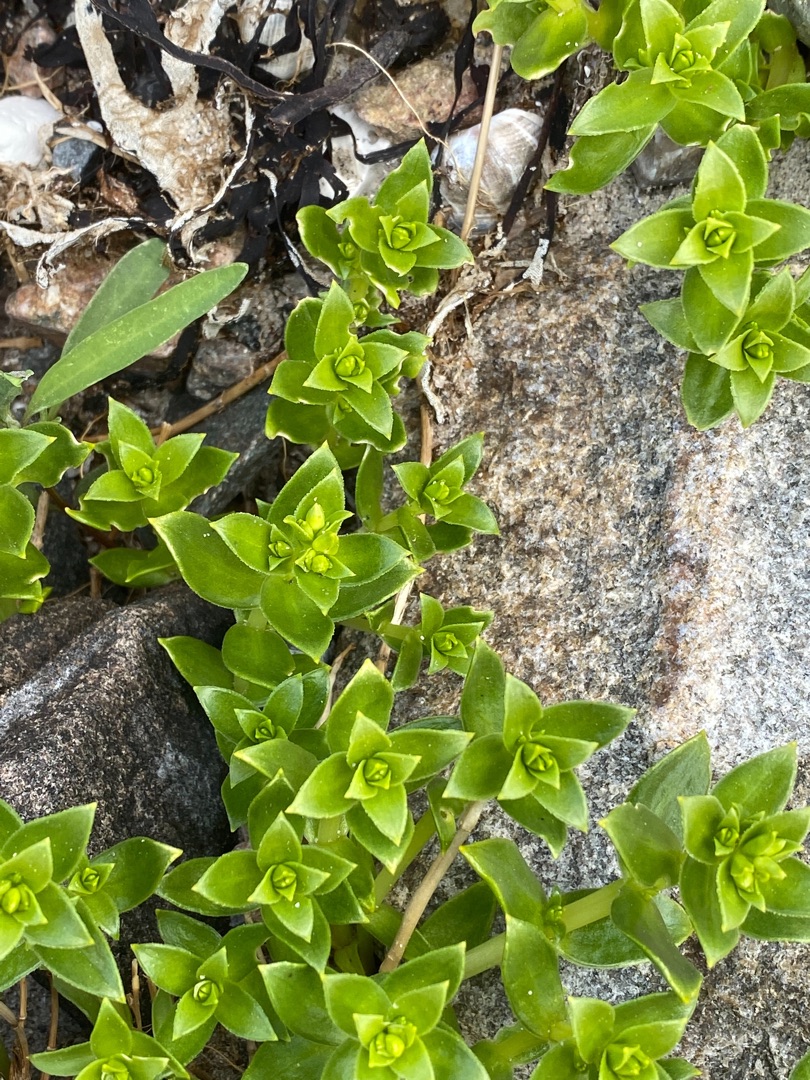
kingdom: Plantae
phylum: Tracheophyta
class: Magnoliopsida
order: Caryophyllales
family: Caryophyllaceae
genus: Honckenya
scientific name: Honckenya peploides
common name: Strandarve
